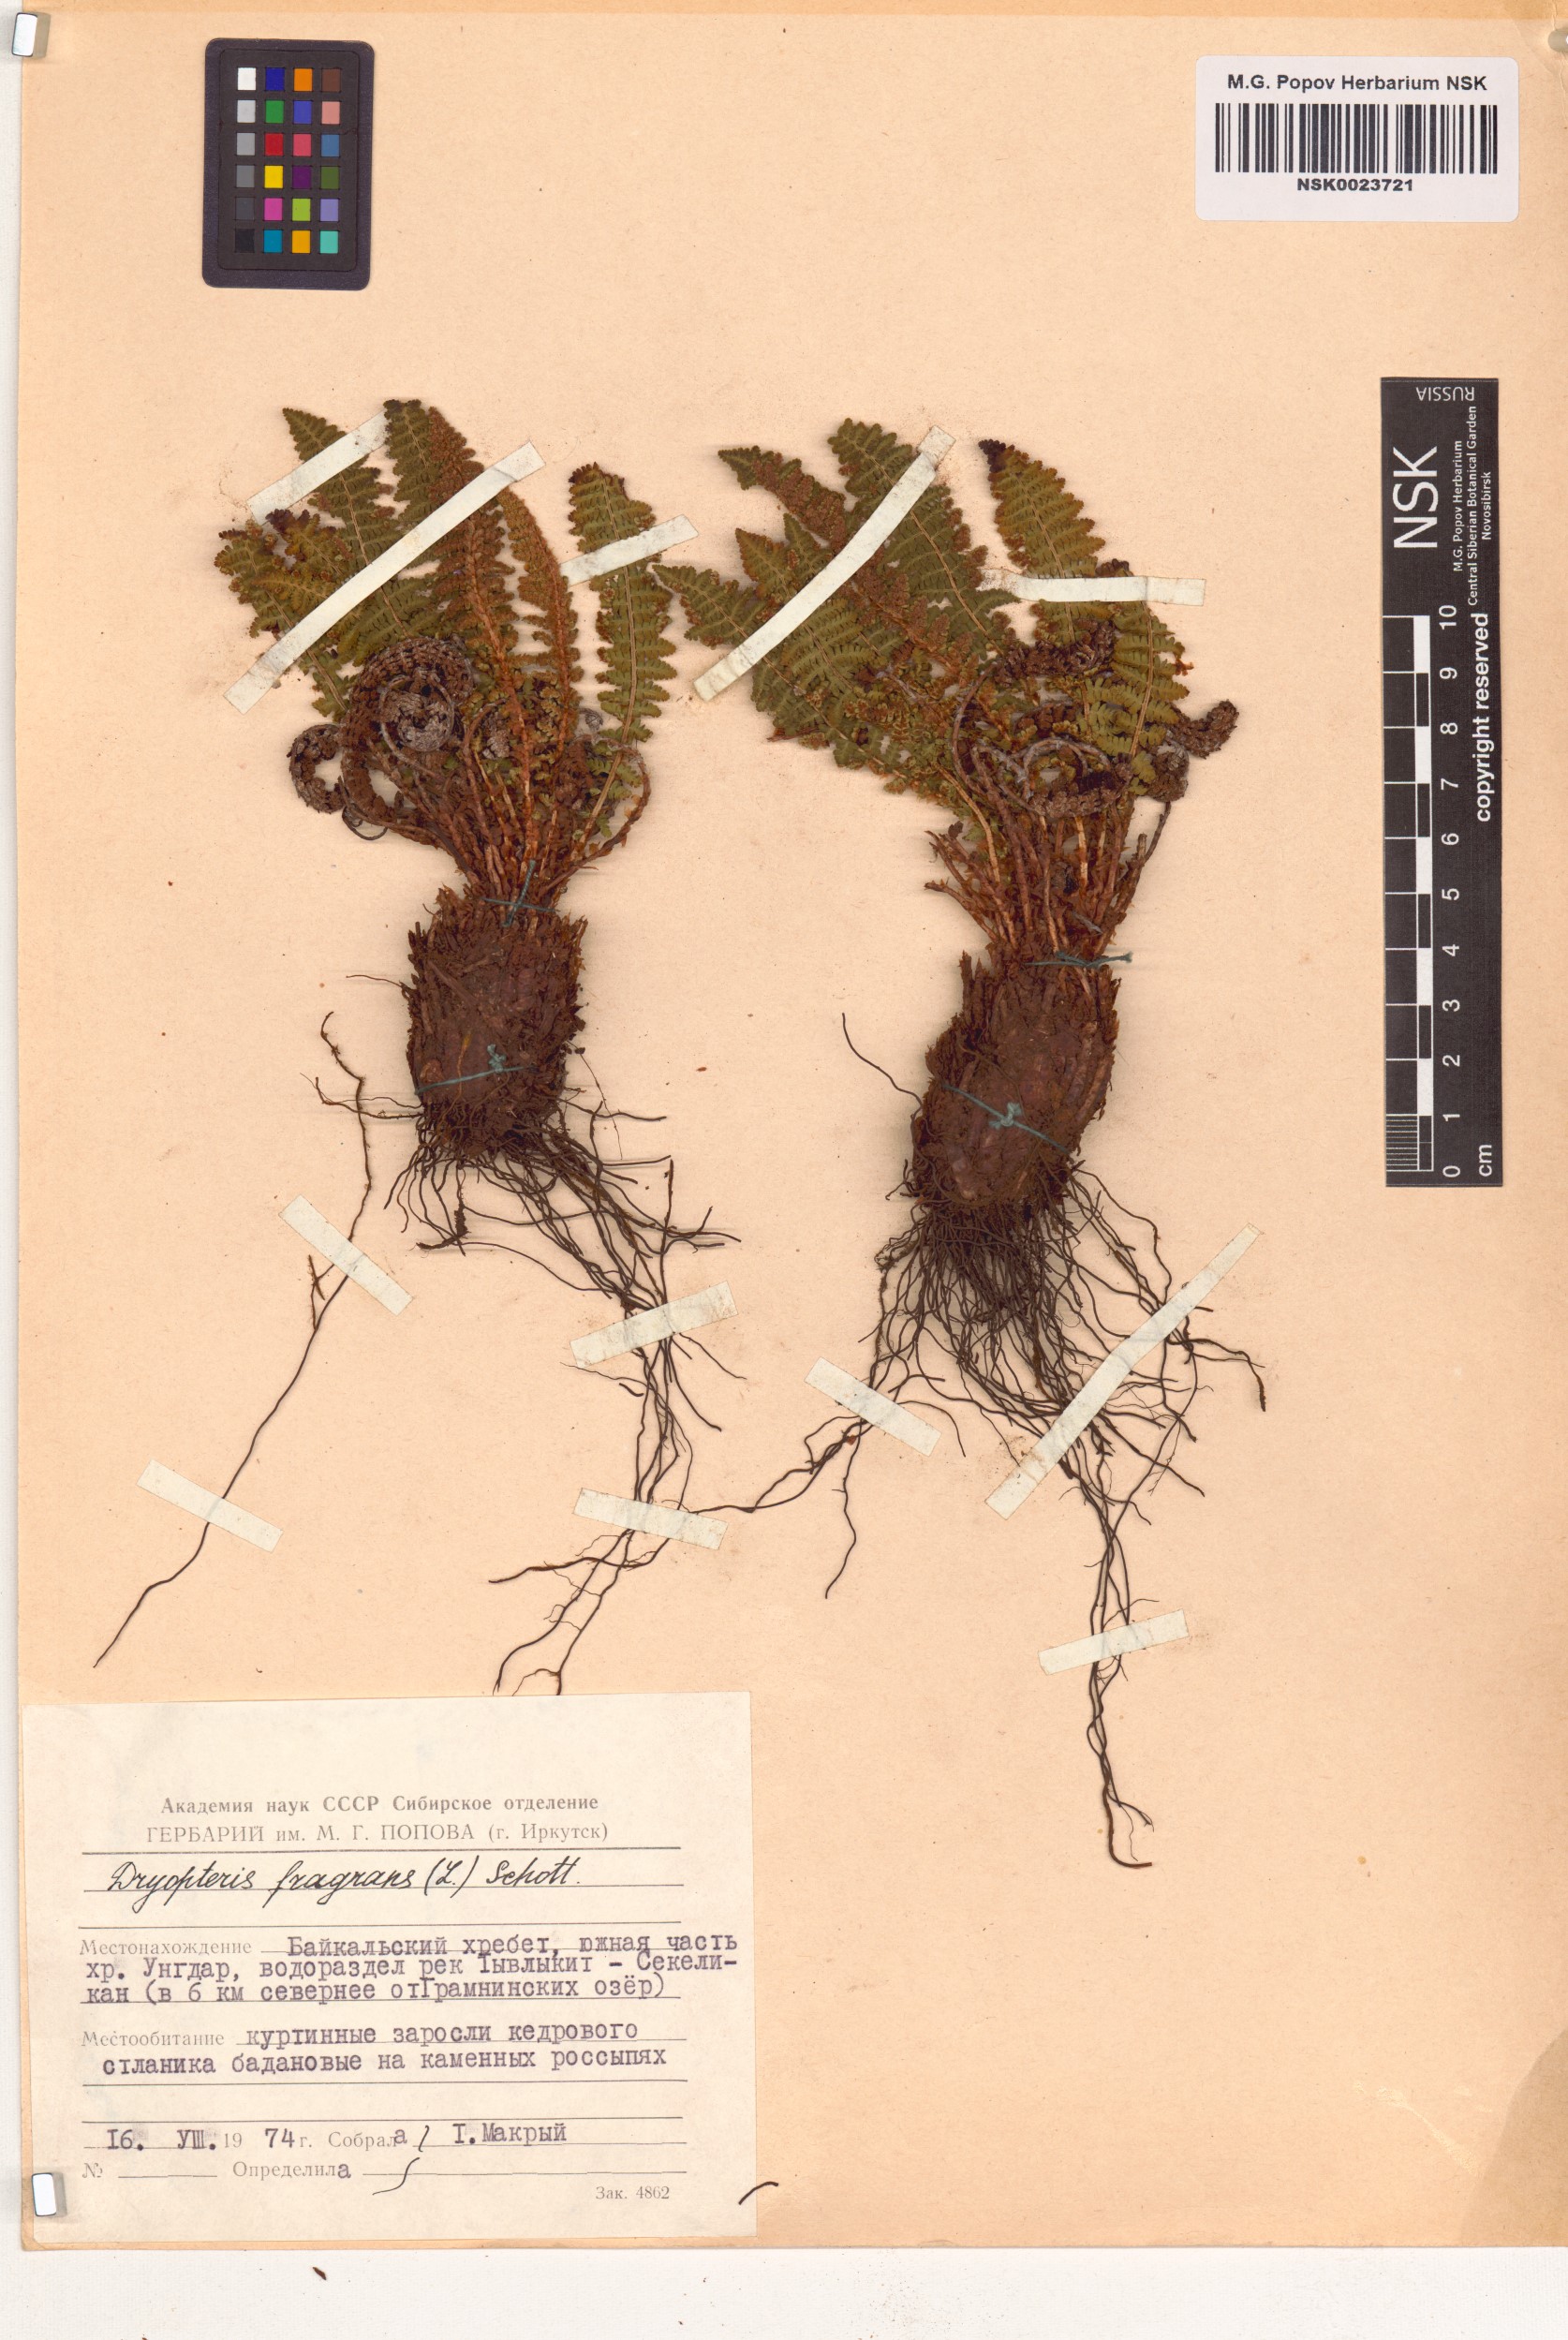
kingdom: Plantae
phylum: Tracheophyta
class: Polypodiopsida
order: Polypodiales
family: Dryopteridaceae
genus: Dryopteris
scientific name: Dryopteris fragrans
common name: Fragrant wood fern
